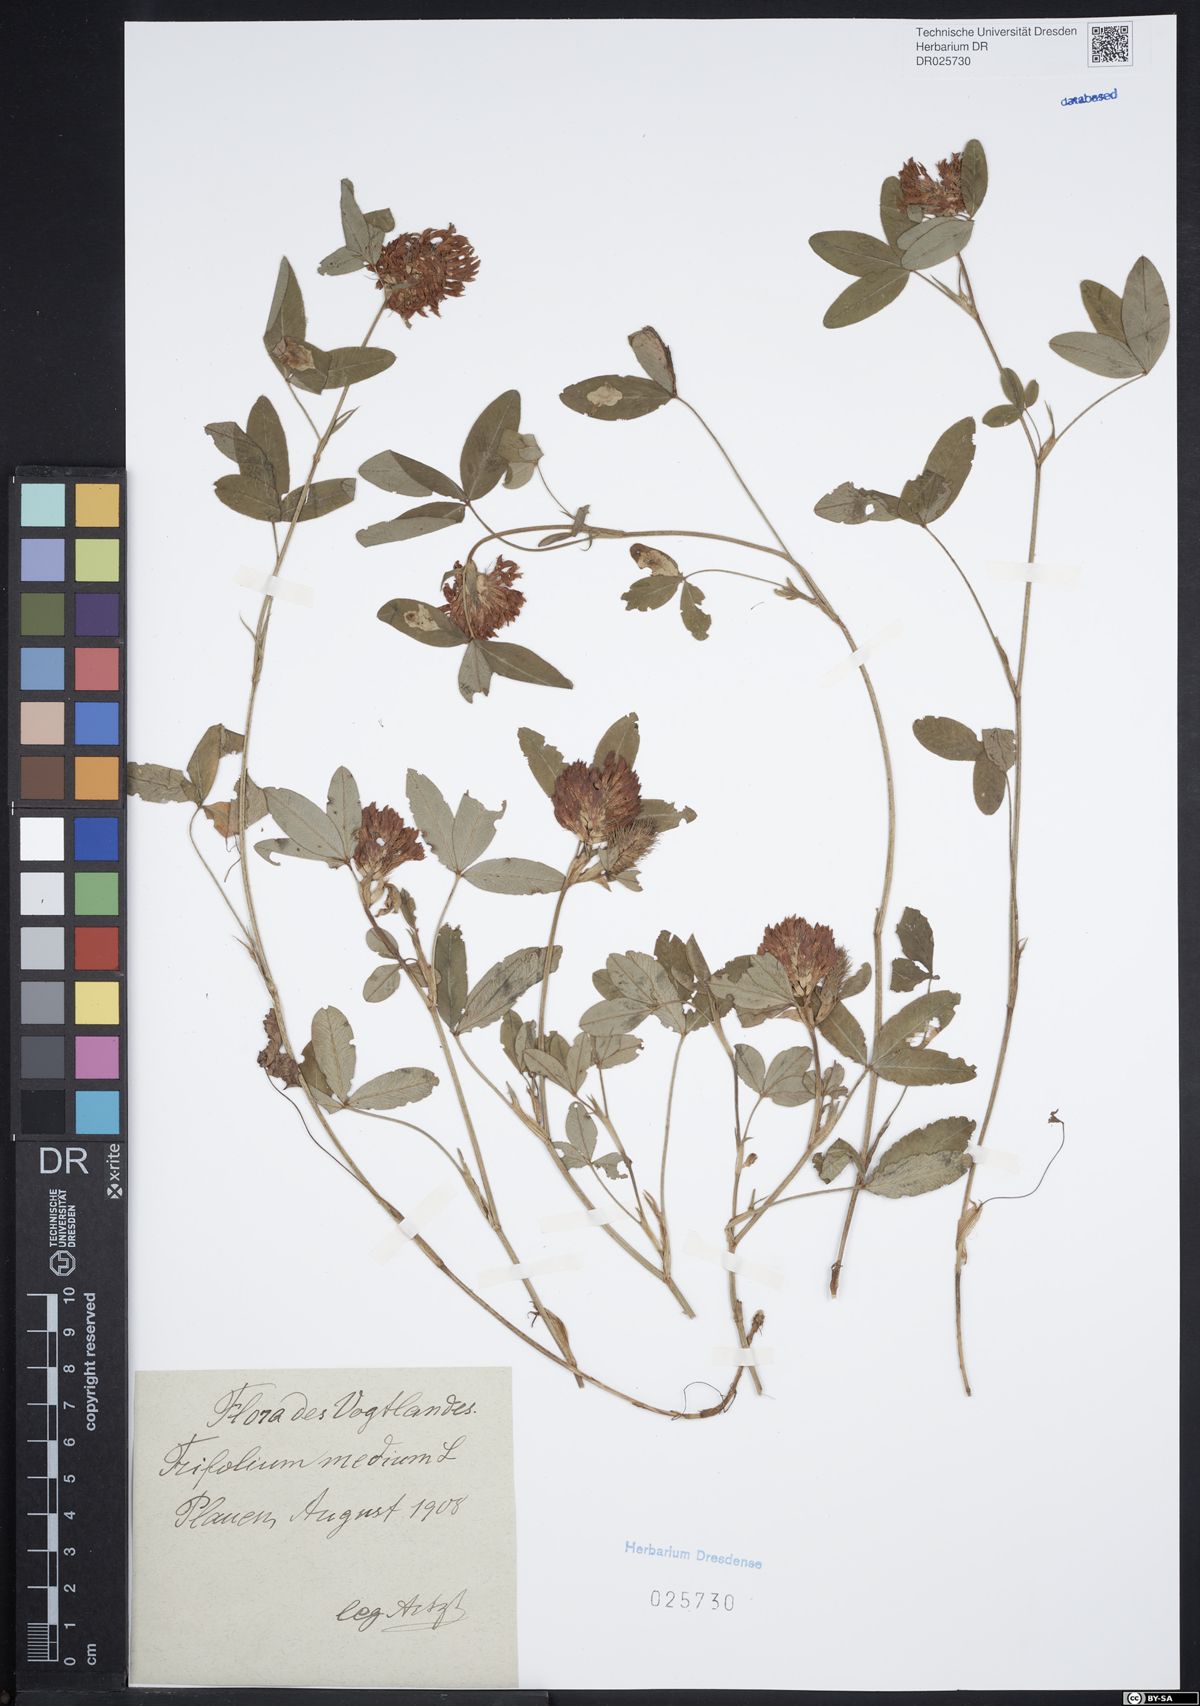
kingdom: Plantae
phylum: Tracheophyta
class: Magnoliopsida
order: Fabales
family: Fabaceae
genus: Trifolium
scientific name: Trifolium medium
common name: Zigzag clover
